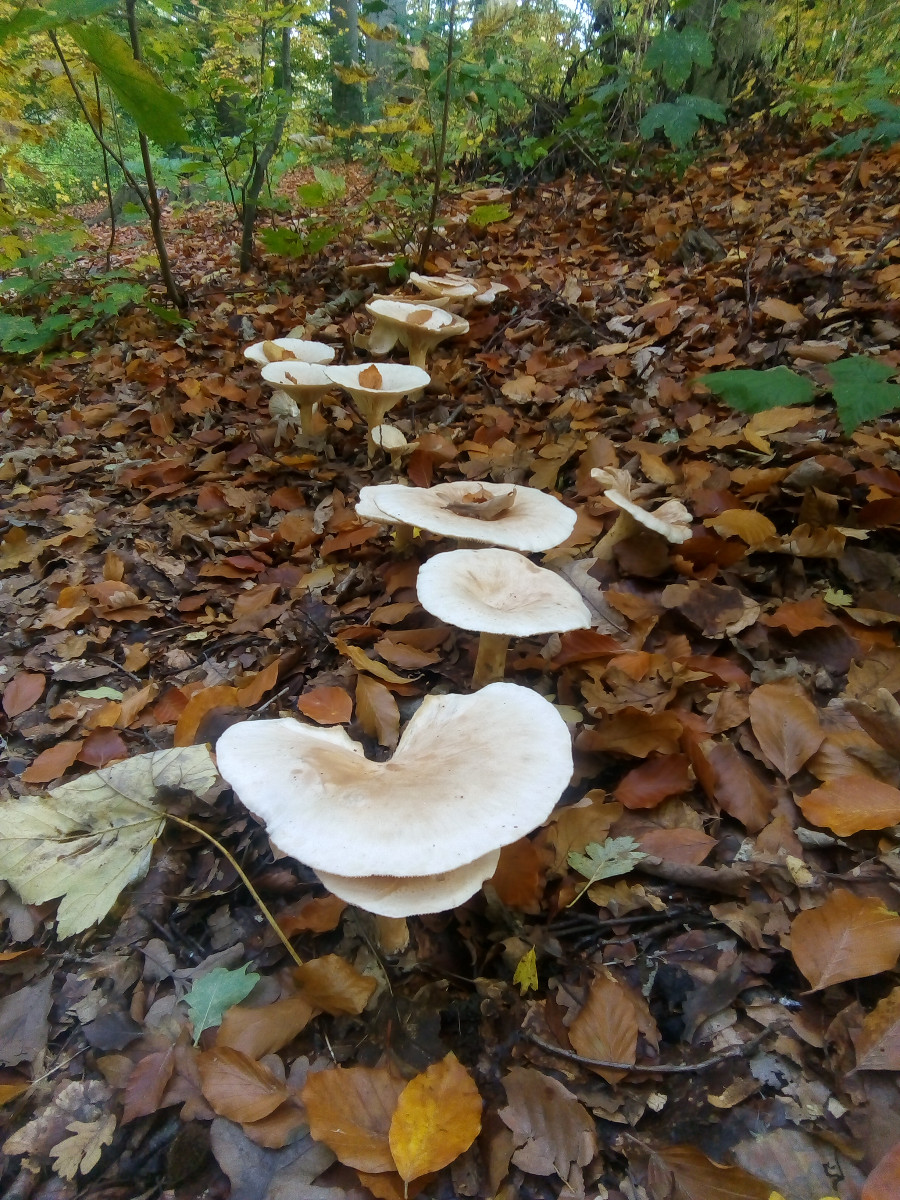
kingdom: Fungi
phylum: Basidiomycota
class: Agaricomycetes
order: Agaricales
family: Tricholomataceae
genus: Infundibulicybe
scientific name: Infundibulicybe geotropa
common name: stor tragthat
